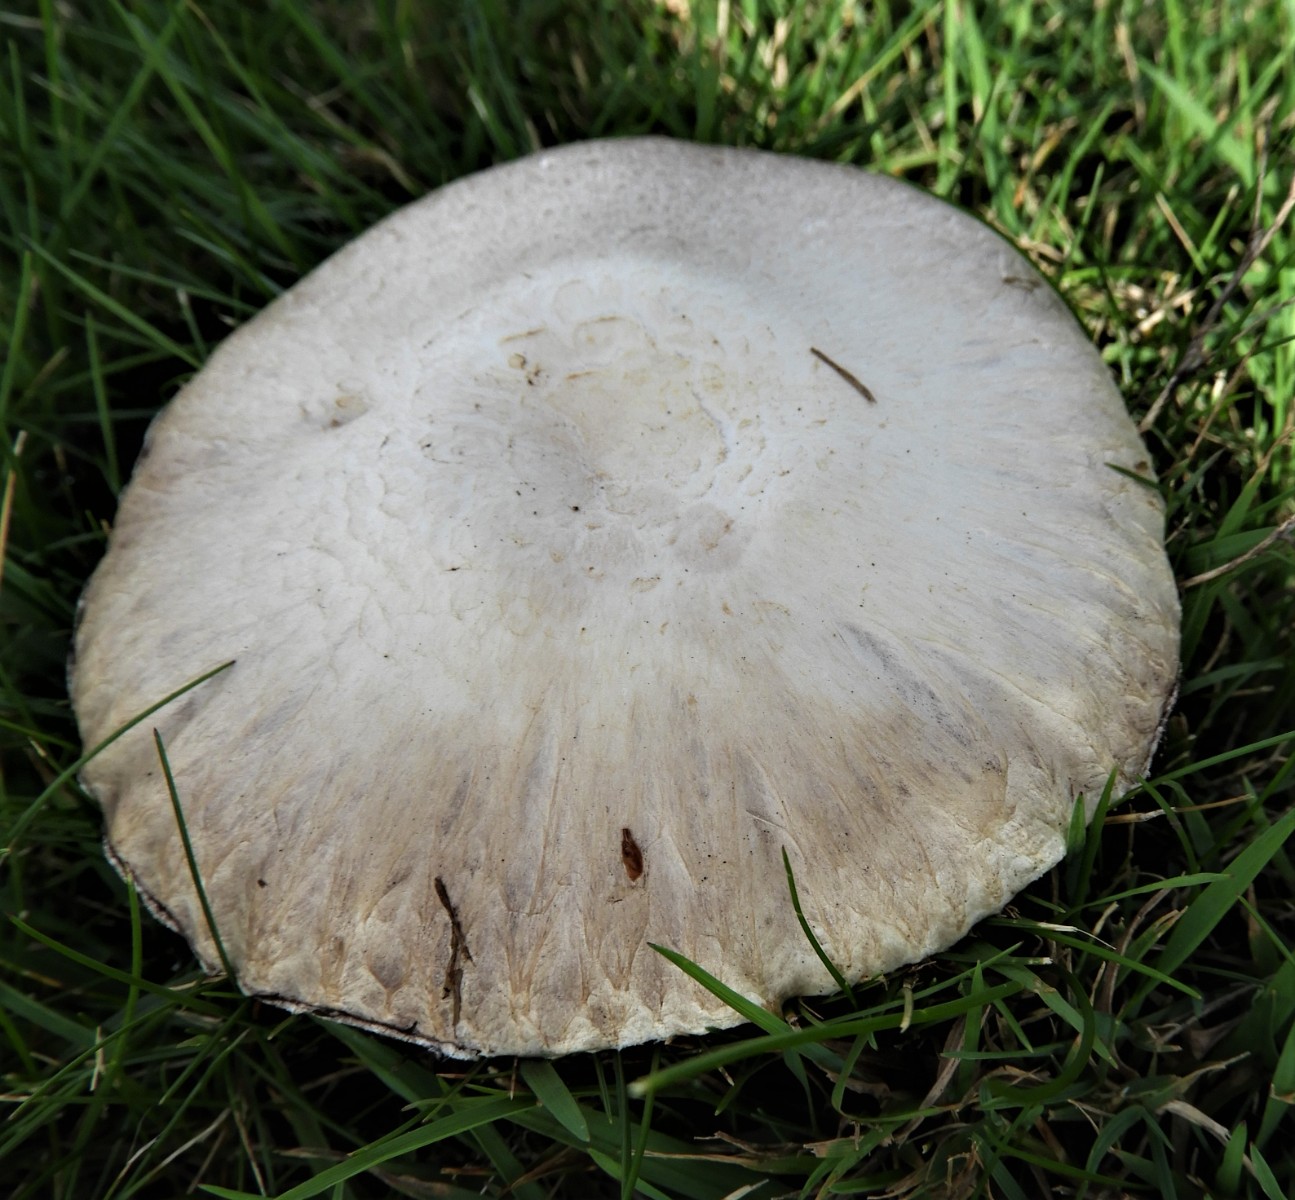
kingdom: Fungi
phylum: Basidiomycota
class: Agaricomycetes
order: Agaricales
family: Agaricaceae
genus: Agaricus
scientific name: Agaricus campestris
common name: mark-champignon
